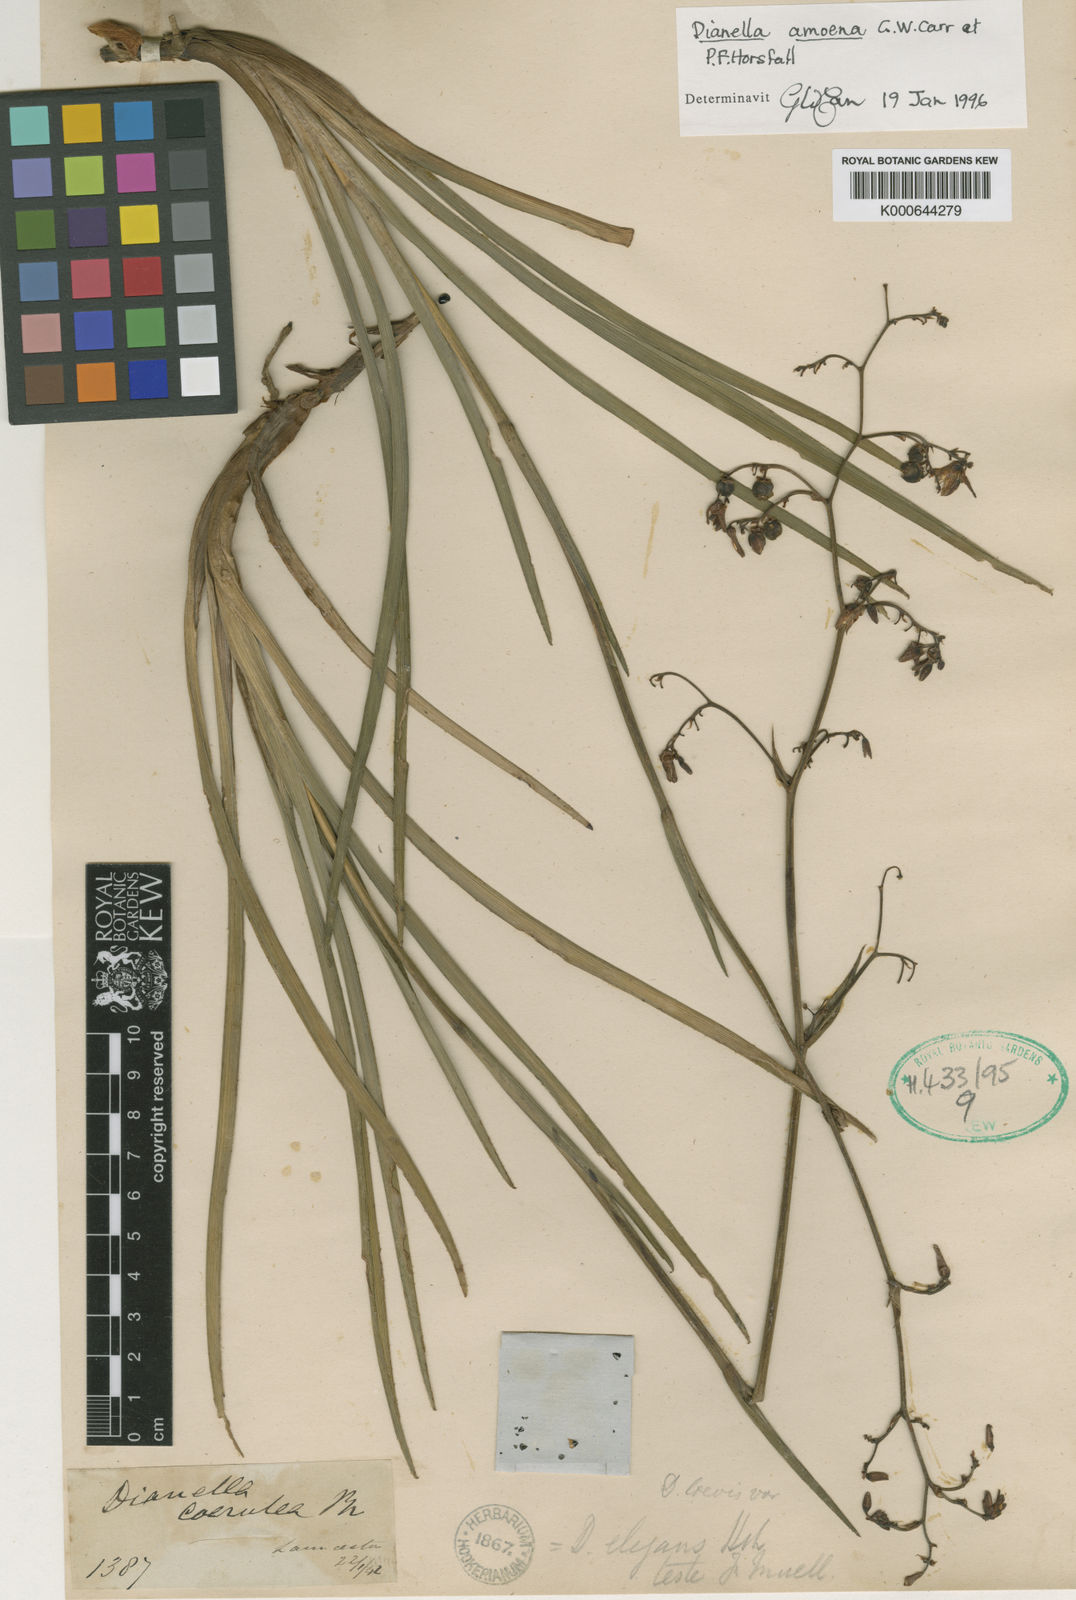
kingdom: Plantae
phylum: Tracheophyta
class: Liliopsida
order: Asparagales
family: Asphodelaceae
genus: Dianella
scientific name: Dianella caerulea
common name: Blue flax-lily
